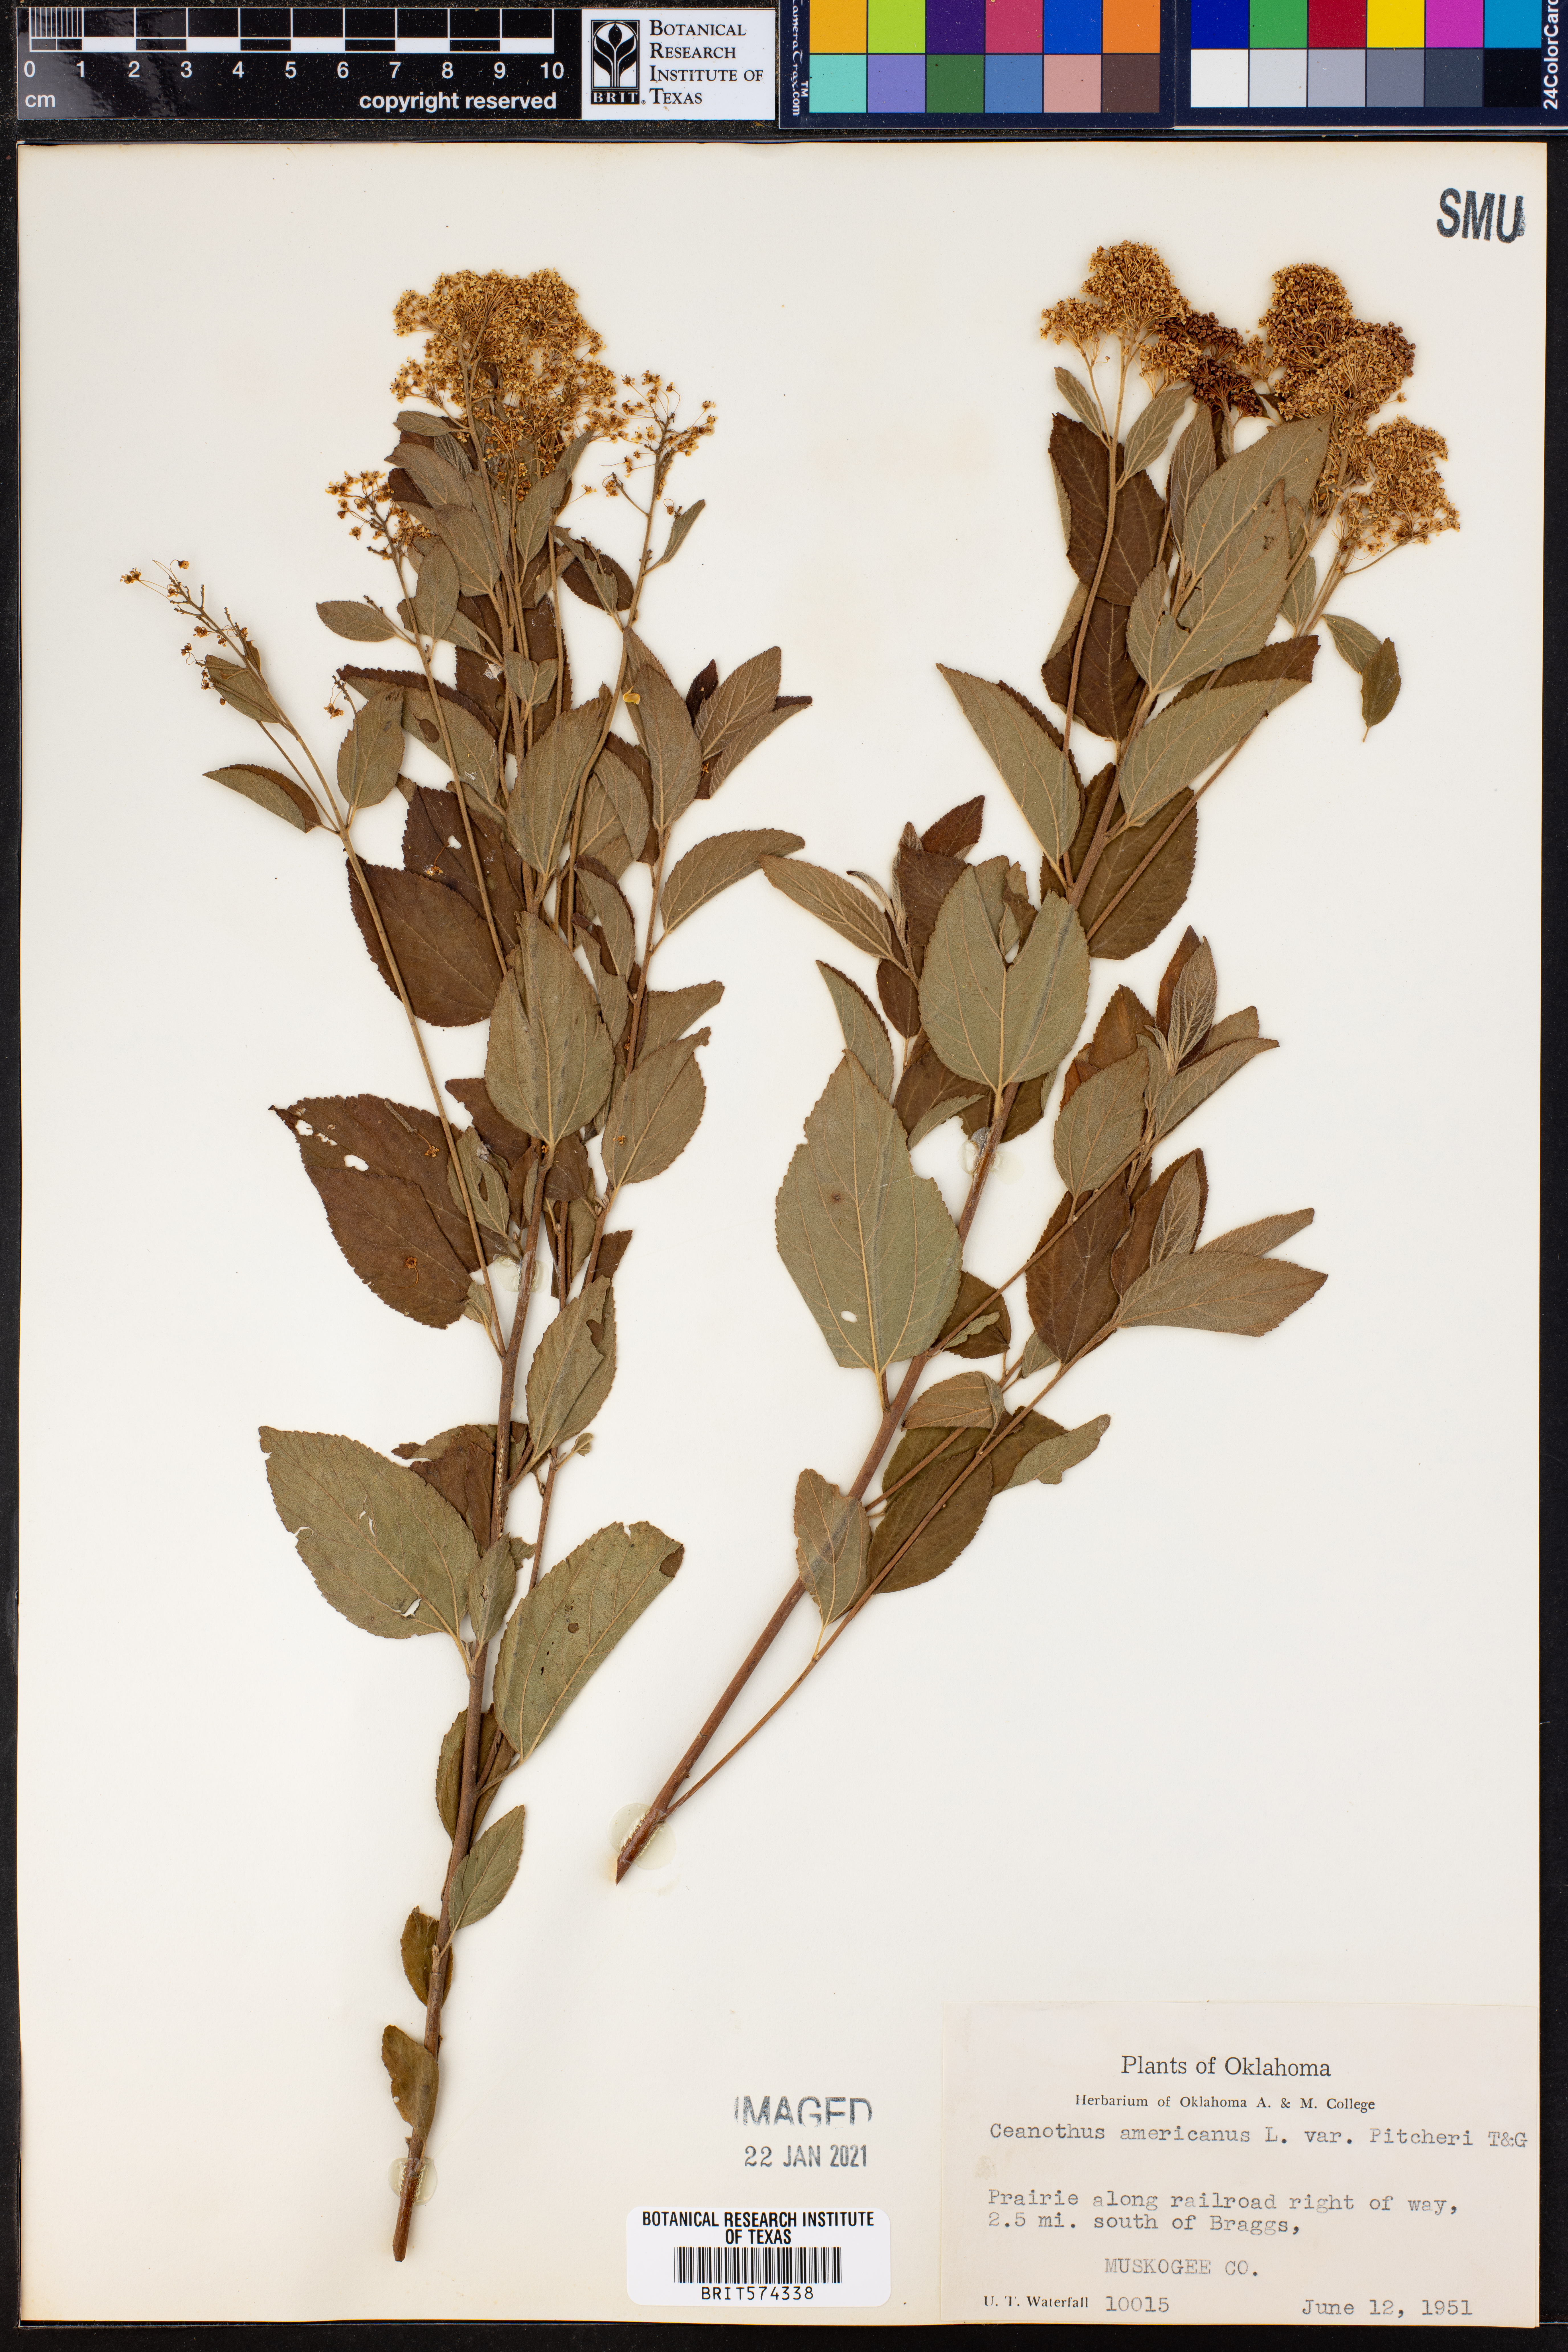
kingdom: Plantae
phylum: Tracheophyta
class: Magnoliopsida
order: Rosales
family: Rhamnaceae
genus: Ceanothus
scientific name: Ceanothus americanus
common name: Redroot
